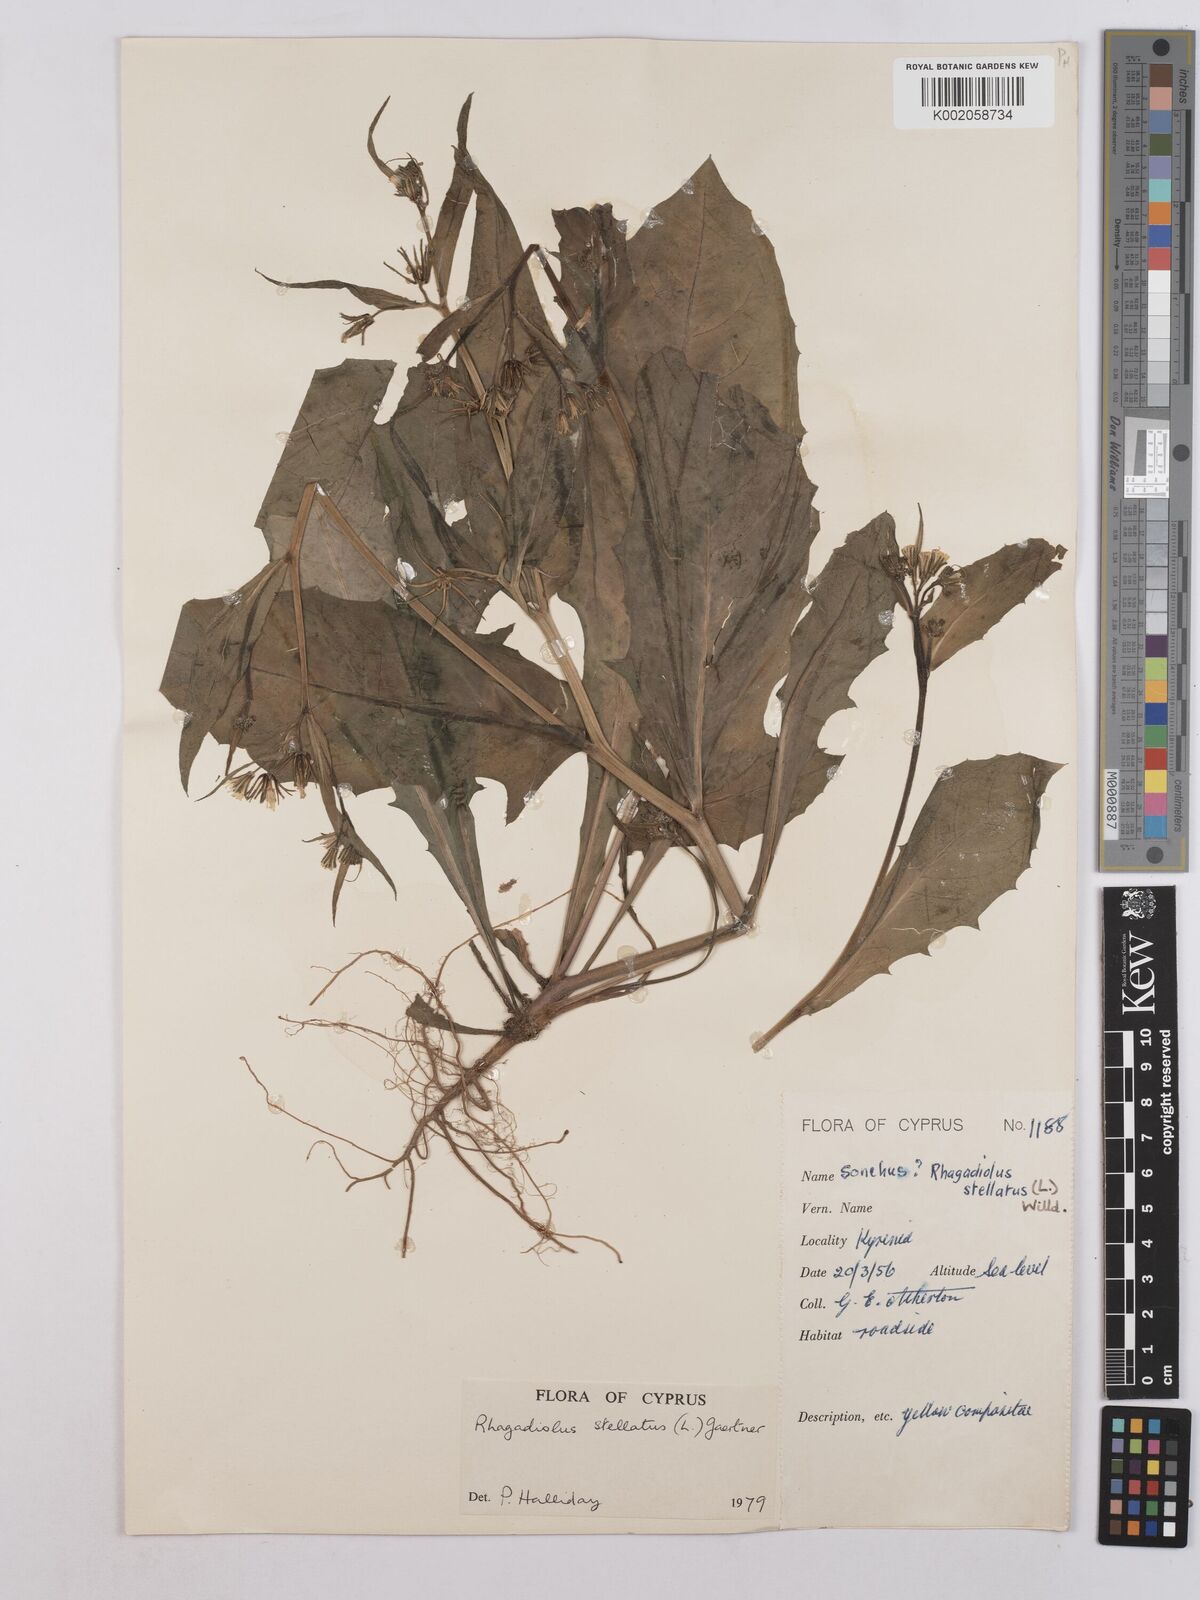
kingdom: Plantae
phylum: Tracheophyta
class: Magnoliopsida
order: Asterales
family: Asteraceae
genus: Rhagadiolus
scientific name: Rhagadiolus stellatus
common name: Star hawkbit
